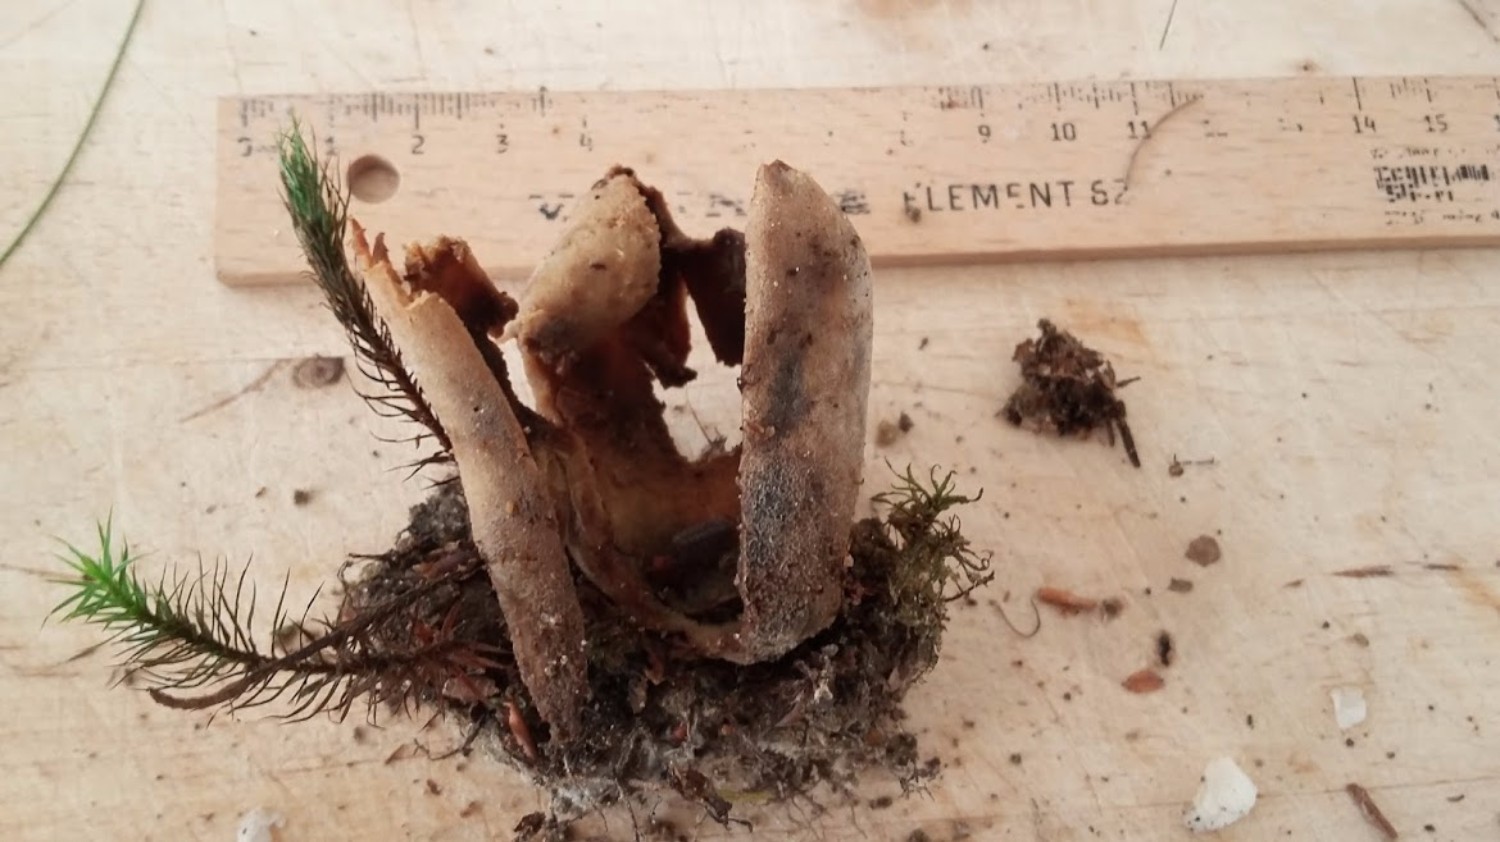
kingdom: Fungi
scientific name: Fungi
